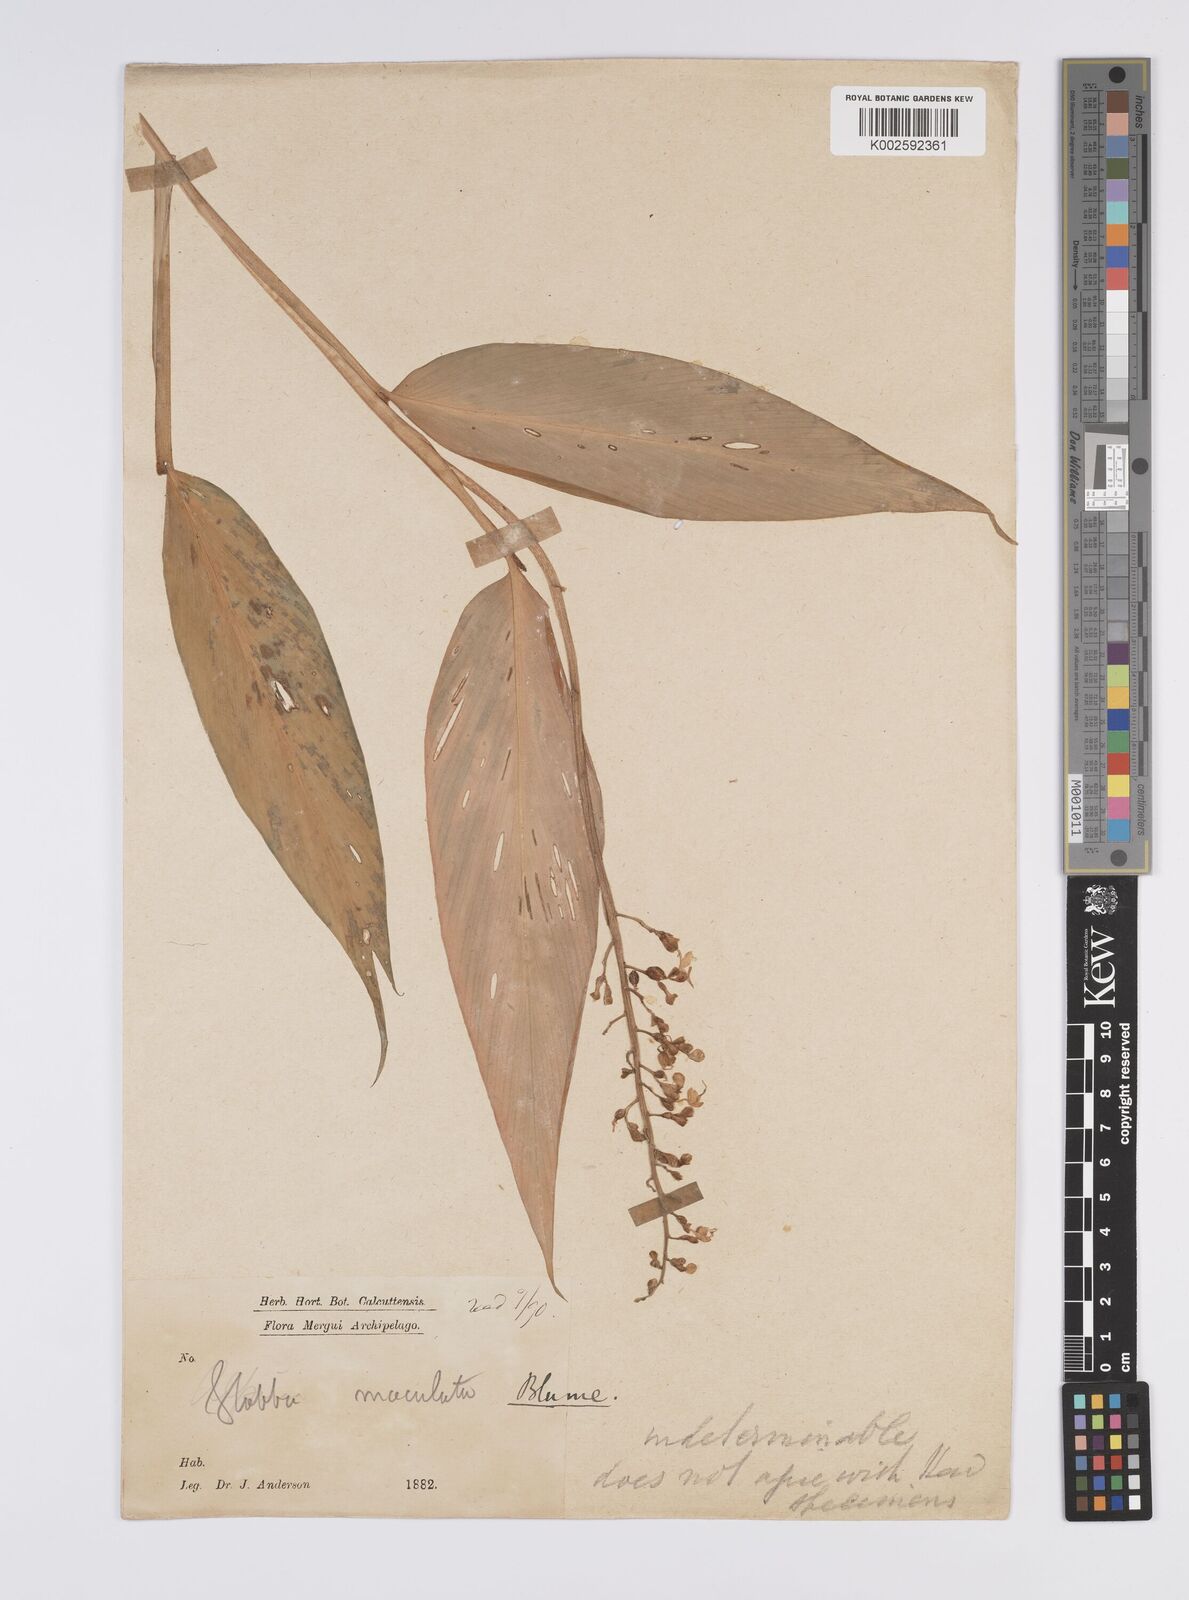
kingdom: Plantae
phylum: Tracheophyta
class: Liliopsida
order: Zingiberales
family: Zingiberaceae
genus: Globba
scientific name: Globba maculata
